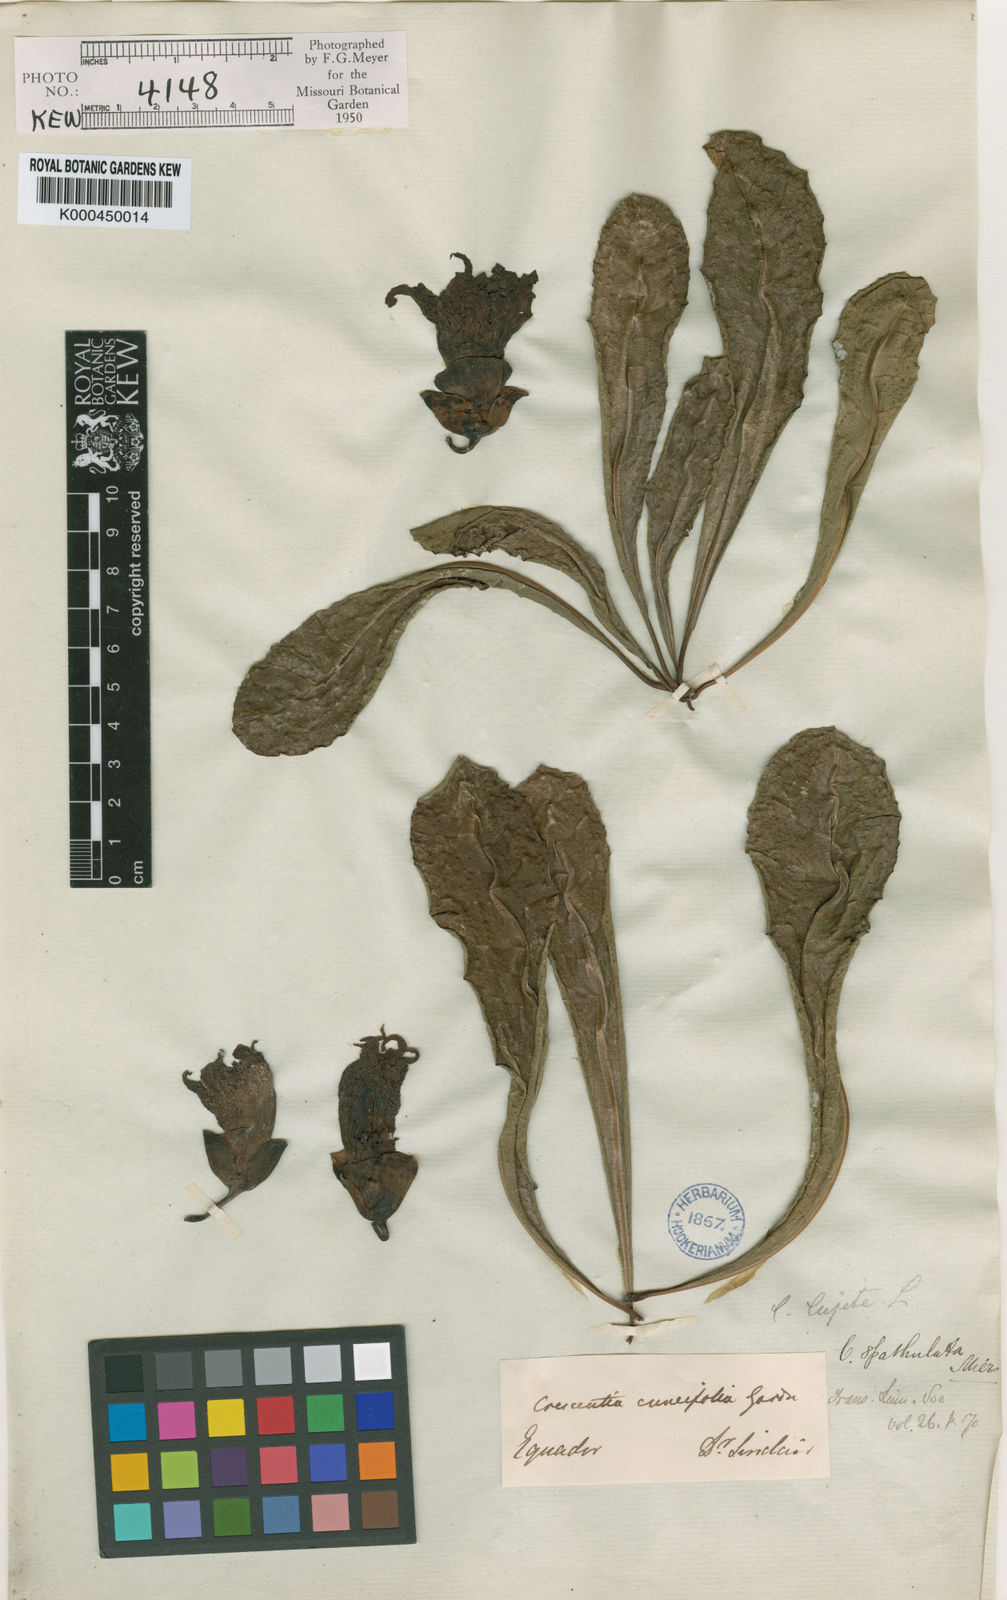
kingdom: Plantae
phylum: Tracheophyta
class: Magnoliopsida
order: Lamiales
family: Bignoniaceae
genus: Crescentia
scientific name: Crescentia cujete
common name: Calabash
